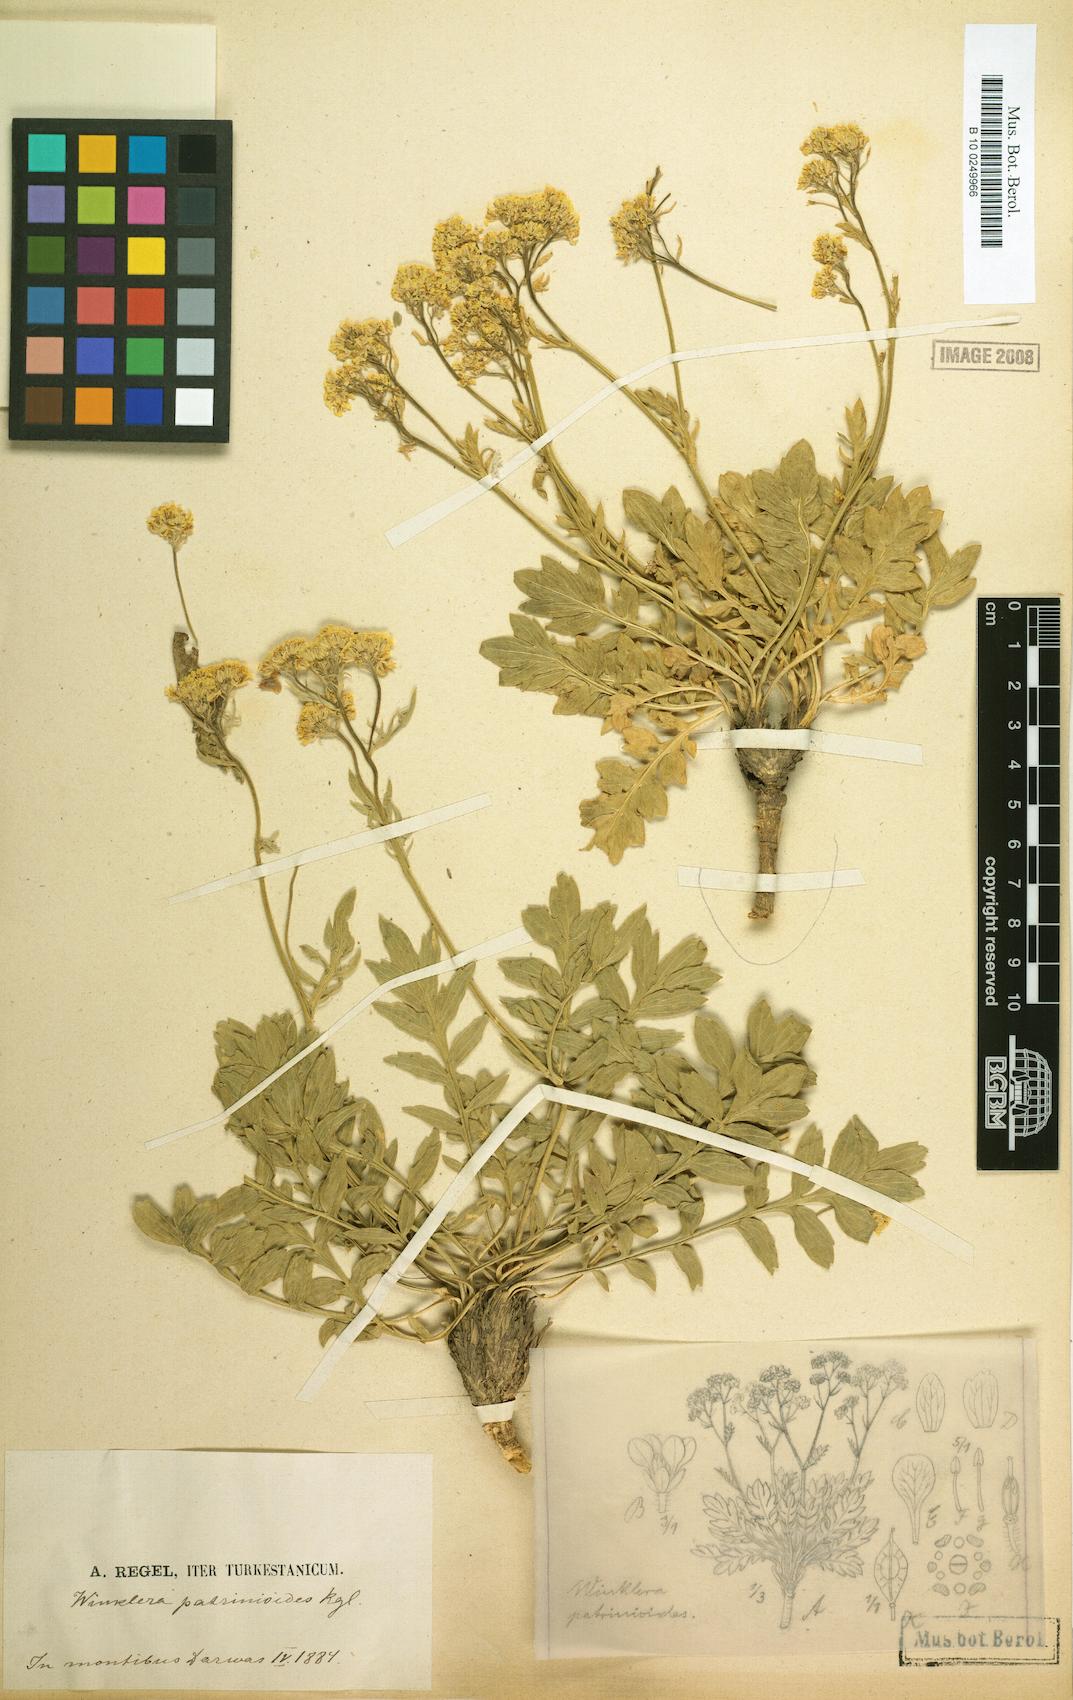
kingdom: Plantae
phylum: Tracheophyta
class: Magnoliopsida
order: Brassicales
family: Brassicaceae
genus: Lepidium
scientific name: Lepidium patrinioides
